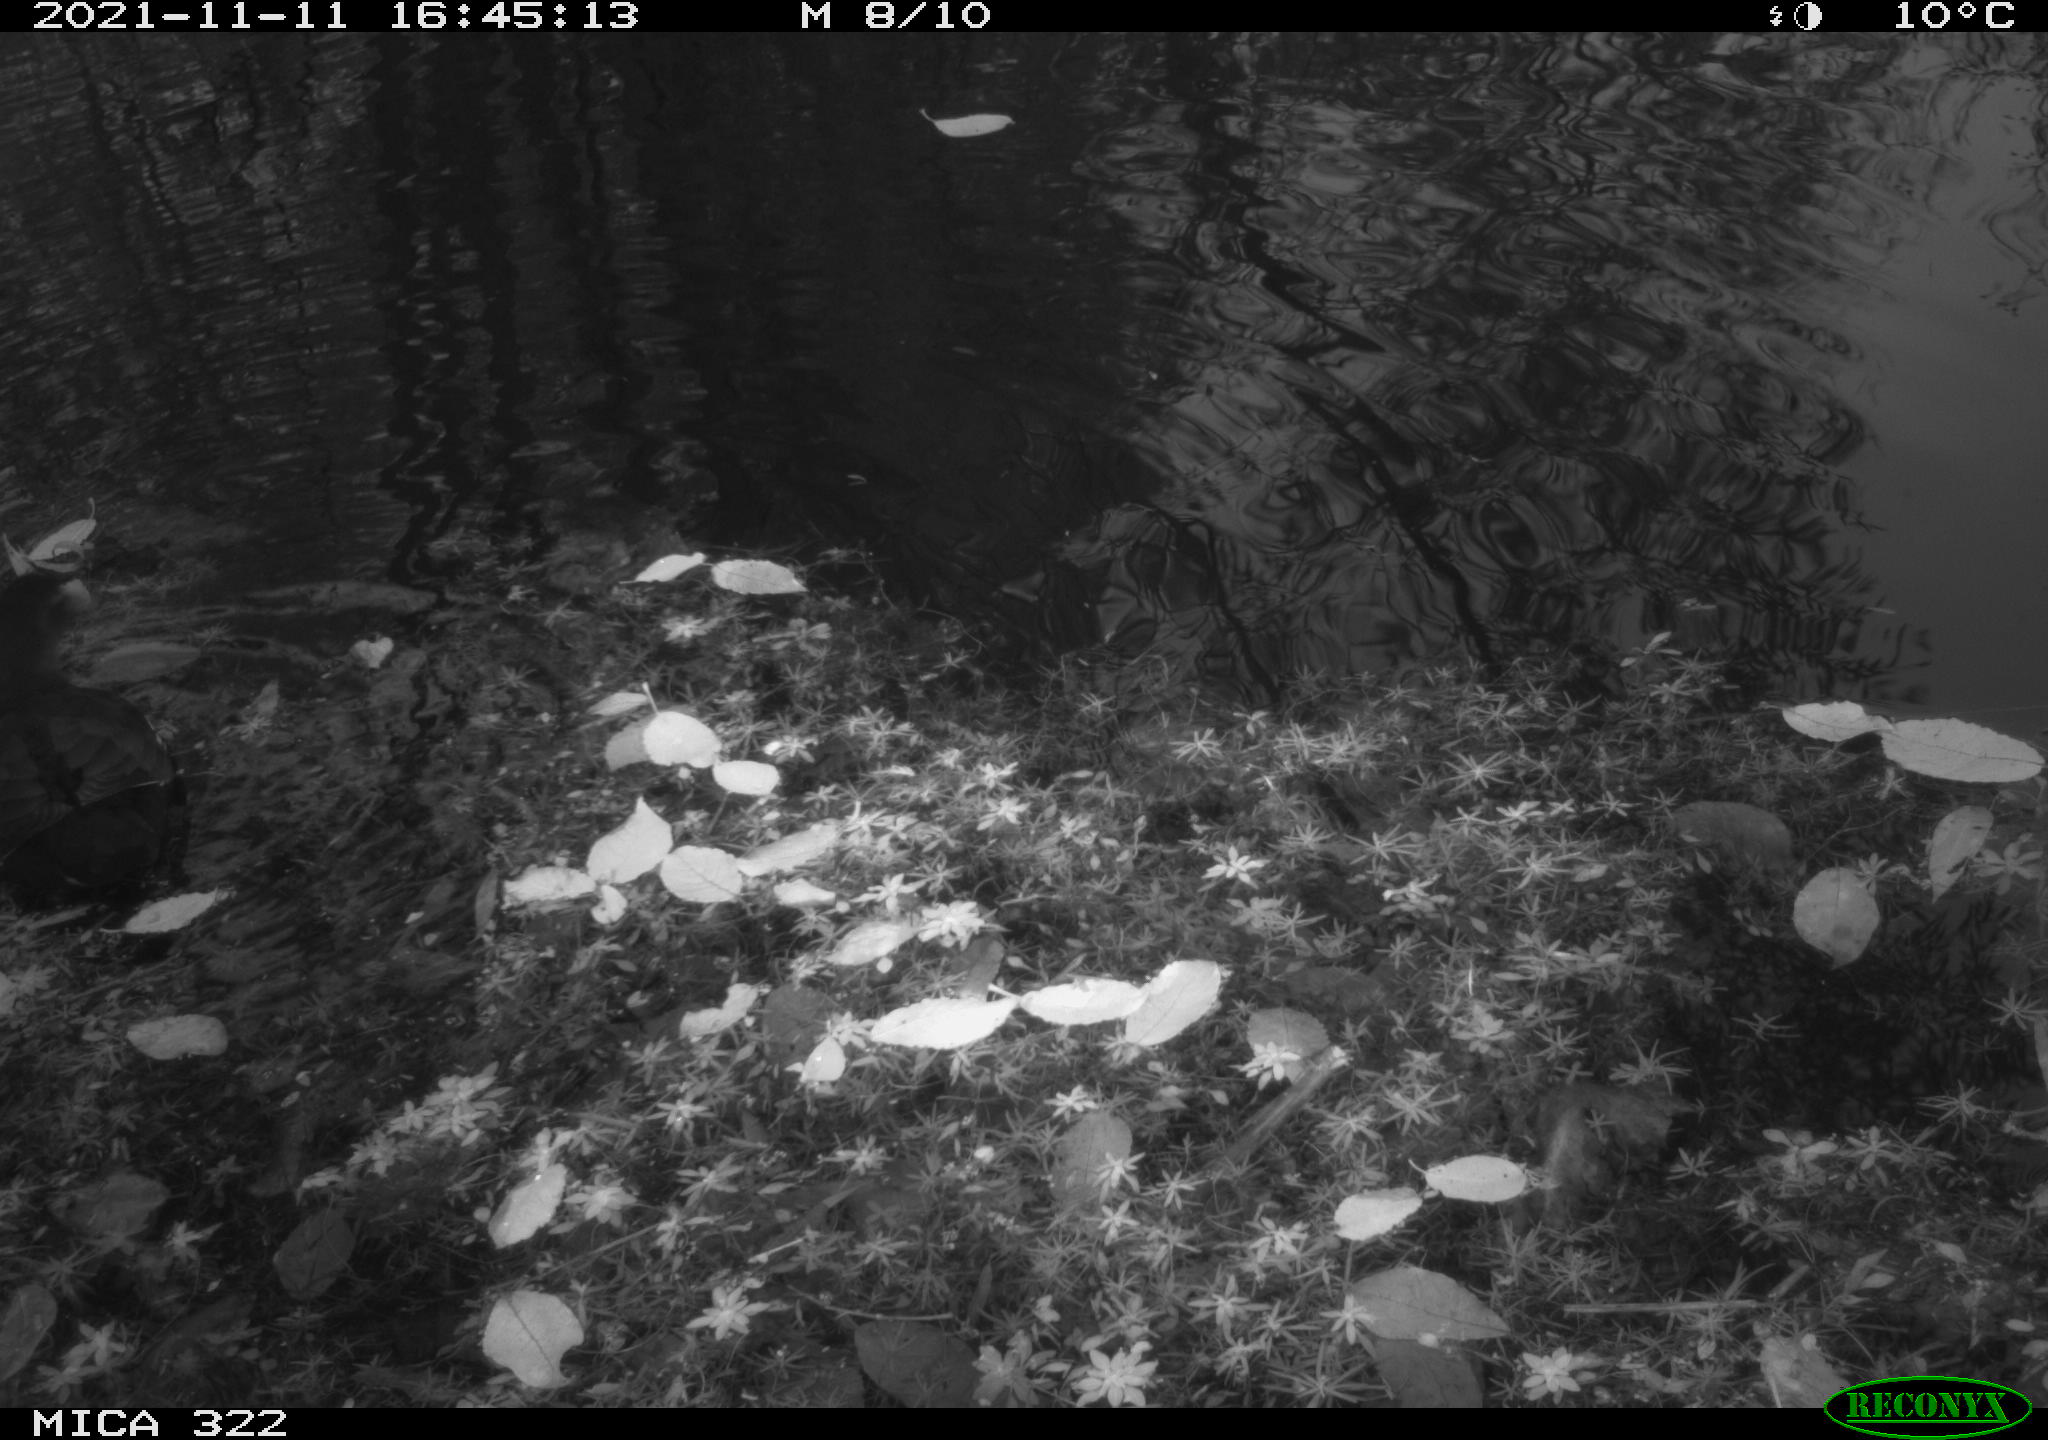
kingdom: Animalia
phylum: Chordata
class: Aves
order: Gruiformes
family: Rallidae
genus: Gallinula
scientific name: Gallinula chloropus
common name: Common moorhen
